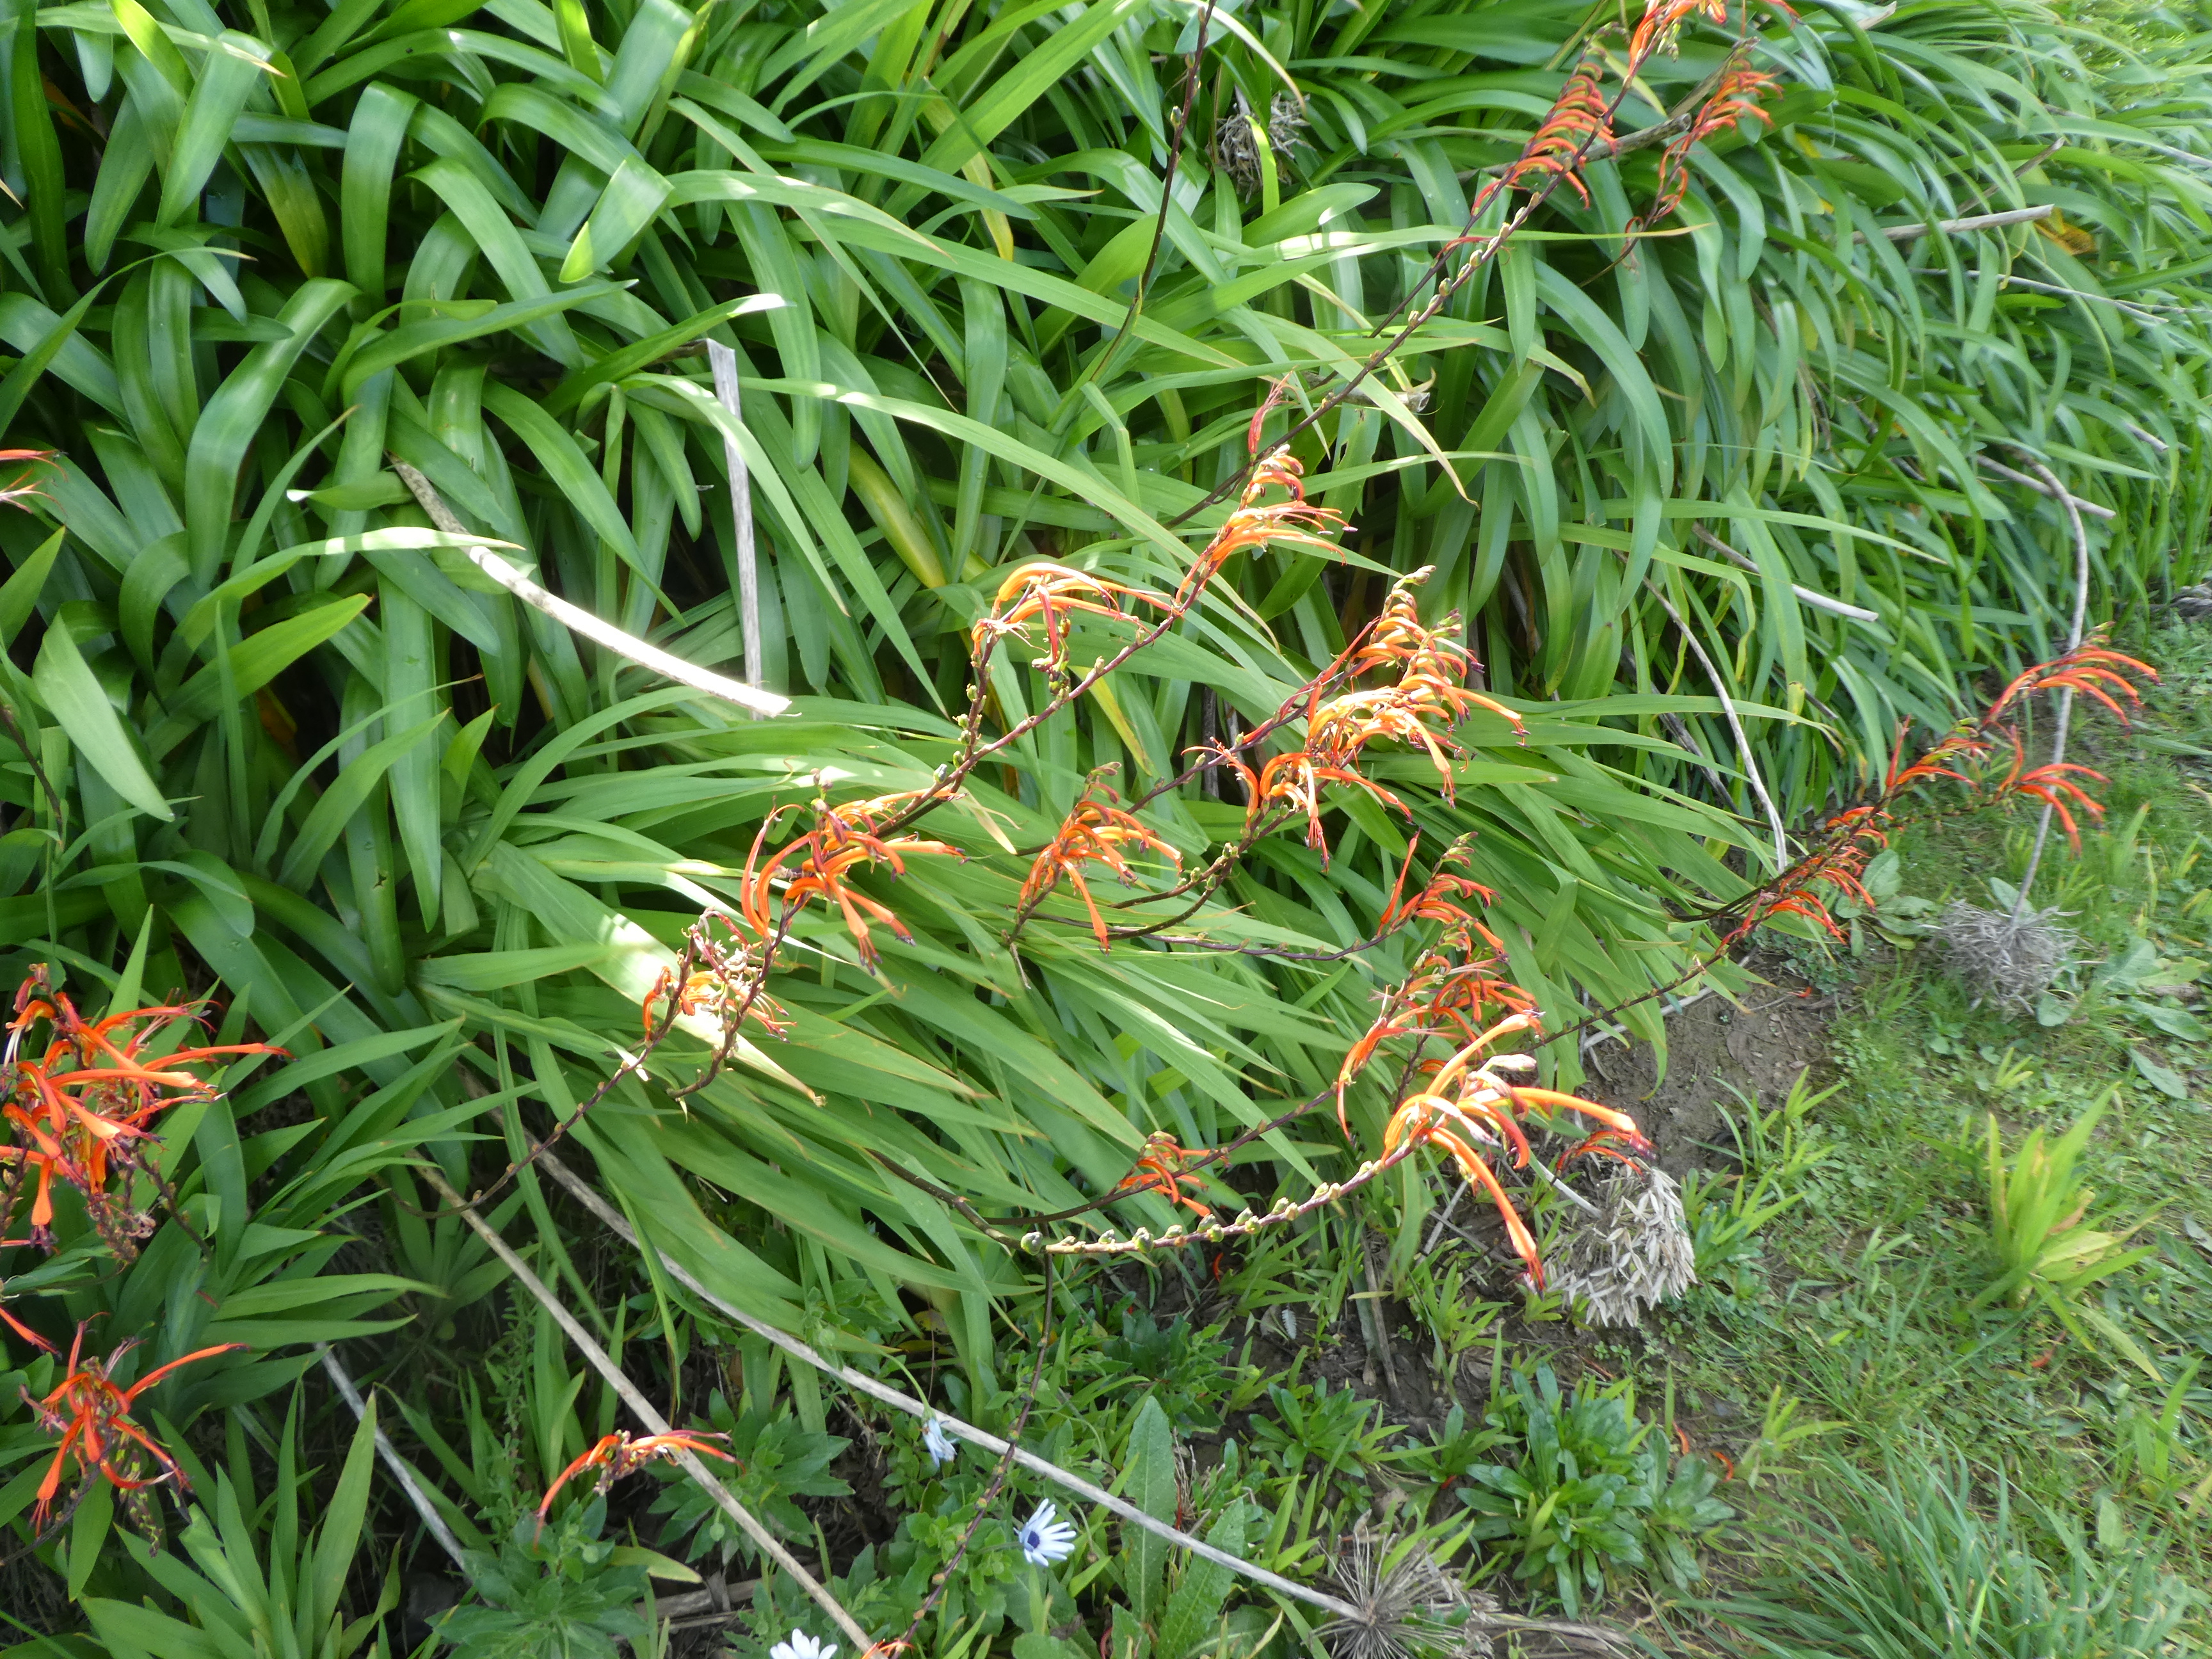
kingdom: Plantae
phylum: Tracheophyta
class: Liliopsida
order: Asparagales
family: Iridaceae
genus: Chasmanthe
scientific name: Chasmanthe bicolor
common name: Bicolor cobra lily
